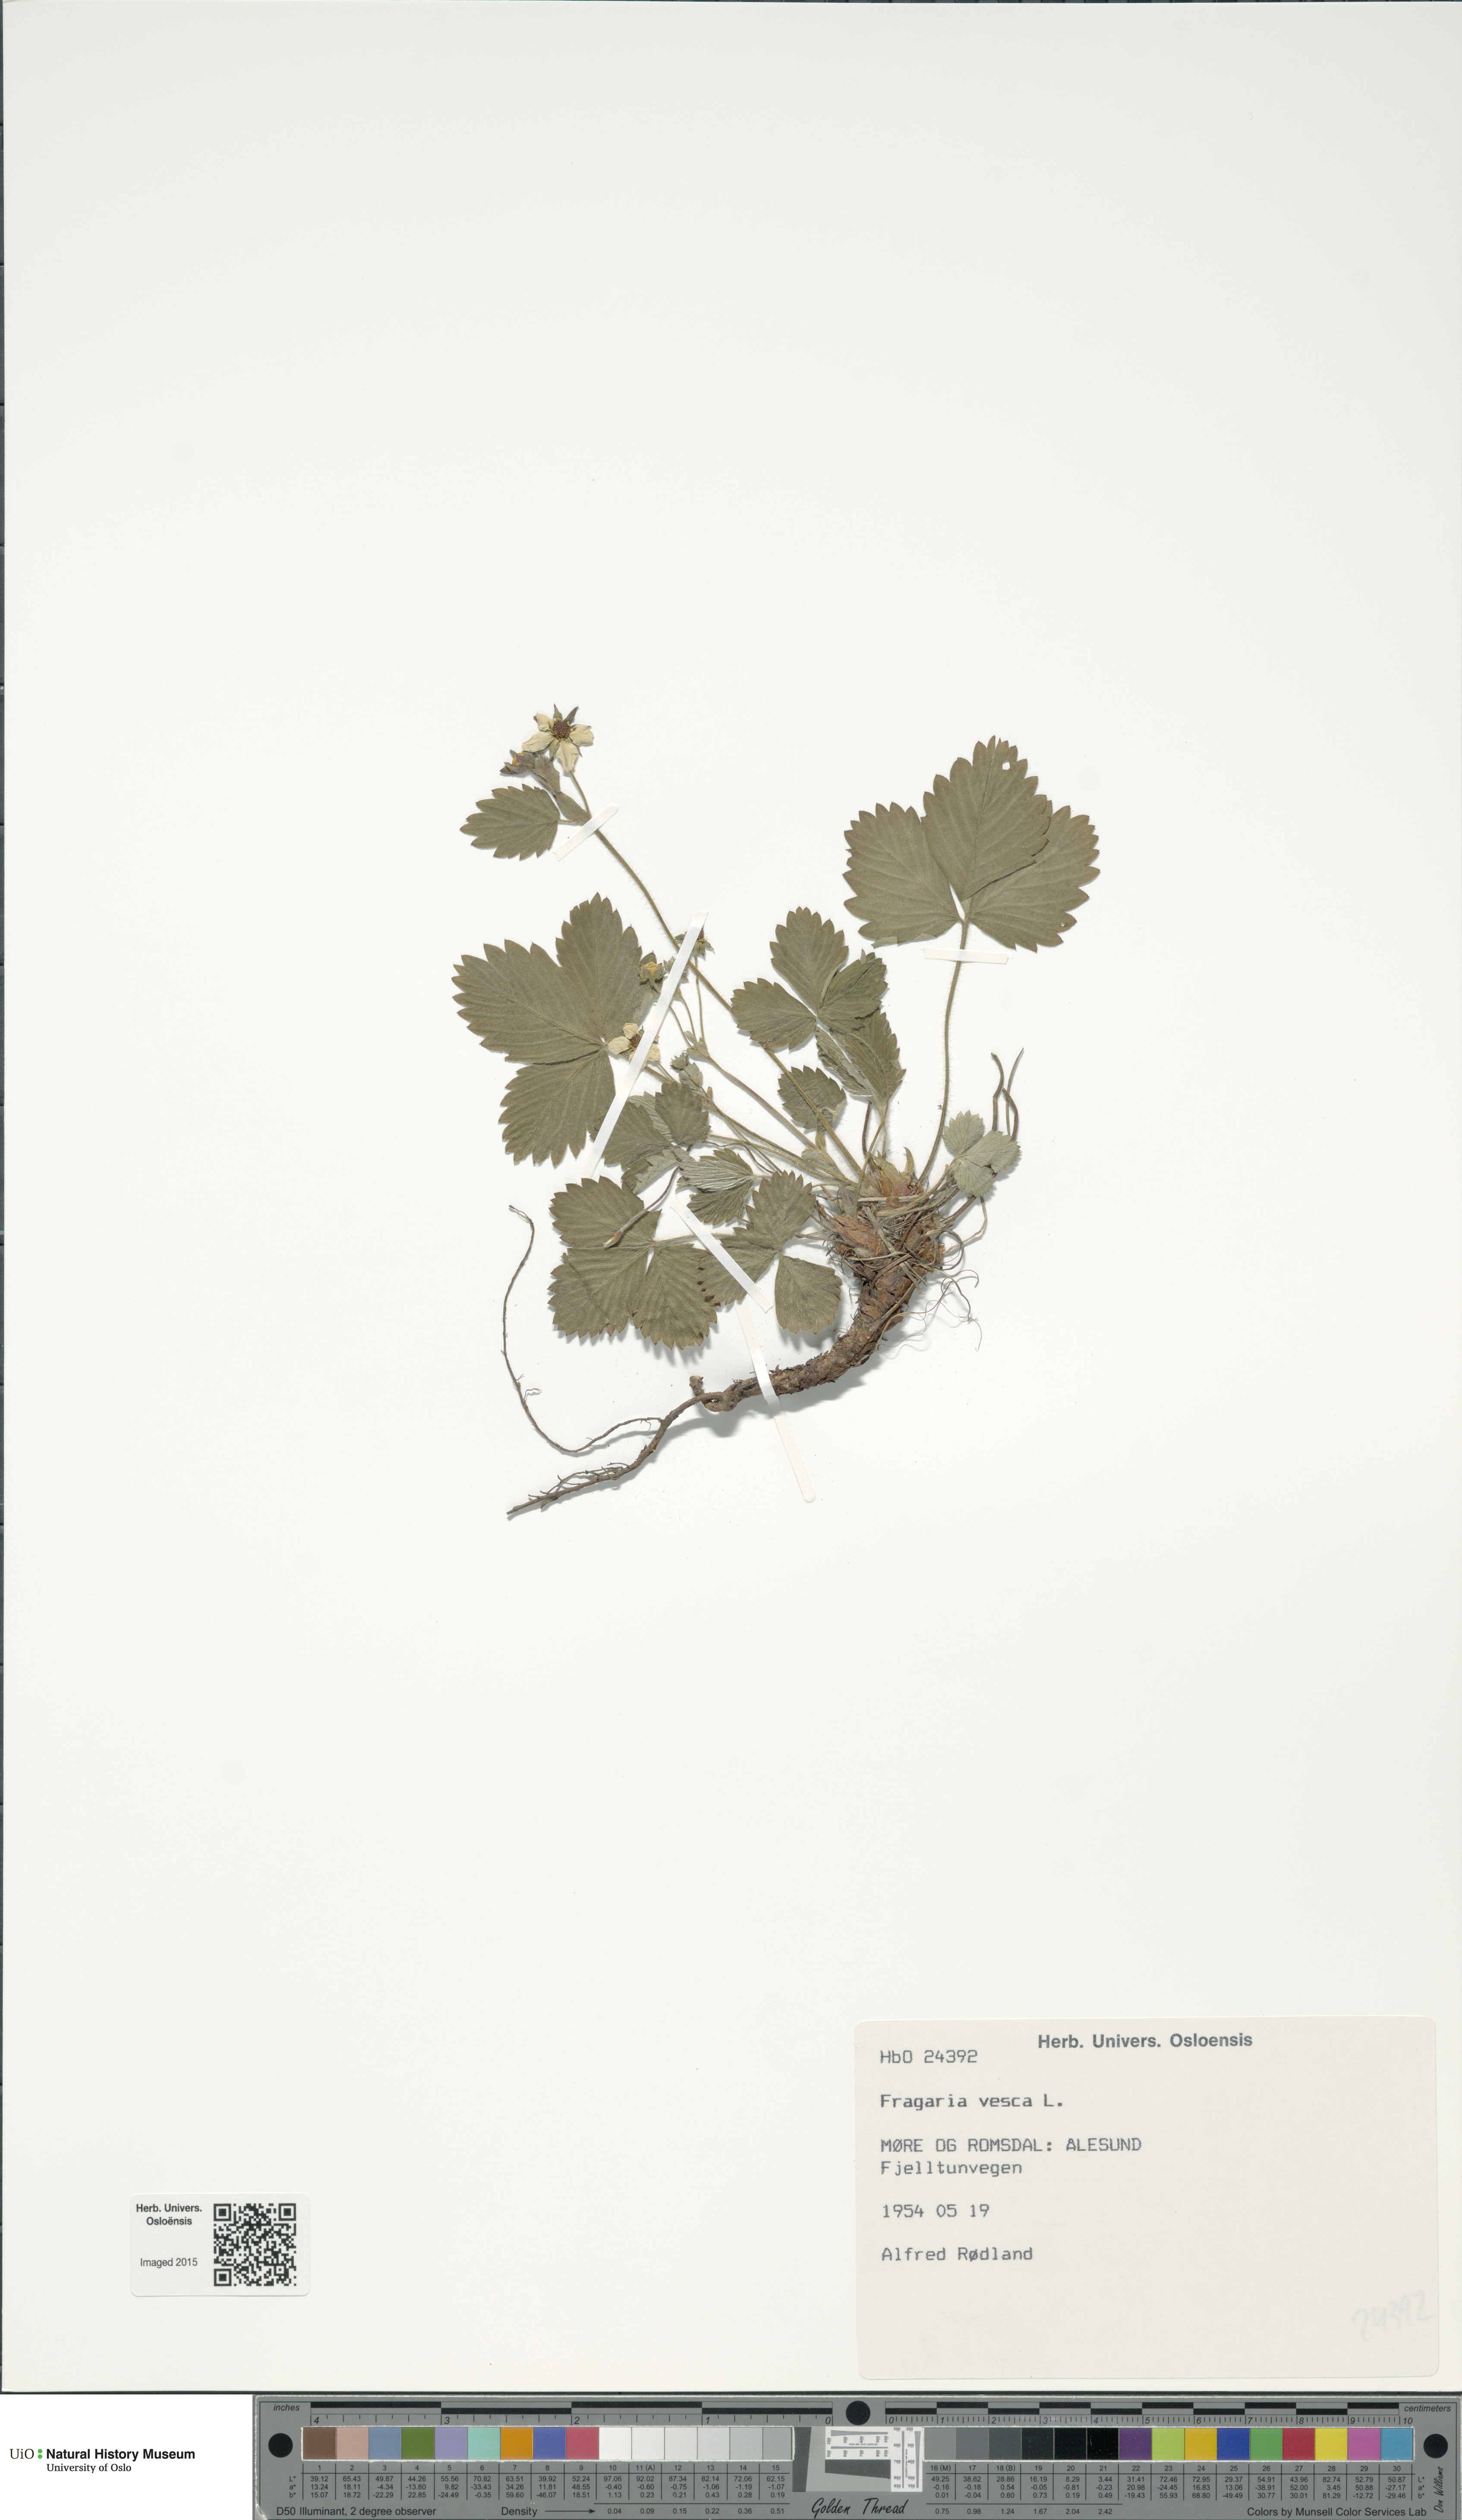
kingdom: Plantae
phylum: Tracheophyta
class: Magnoliopsida
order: Rosales
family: Rosaceae
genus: Fragaria
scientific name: Fragaria vesca
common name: Wild strawberry
